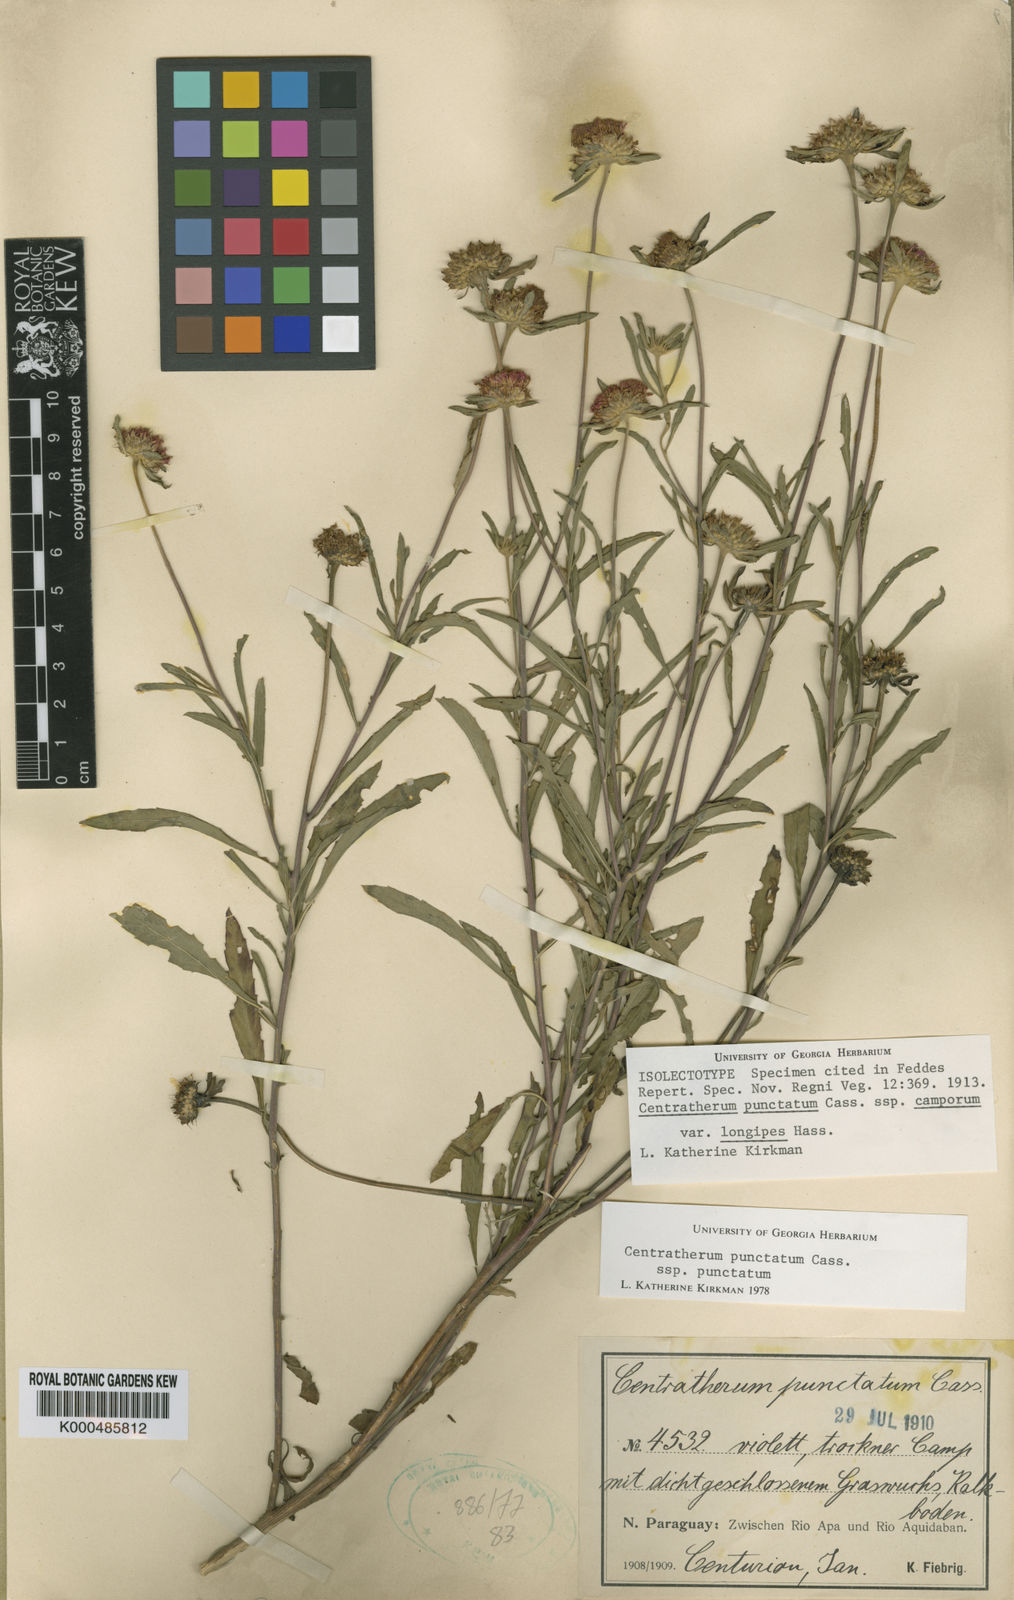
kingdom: Plantae
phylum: Tracheophyta
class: Magnoliopsida
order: Asterales
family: Asteraceae
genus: Centratherum
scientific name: Centratherum punctatum
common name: Larkdaisy
